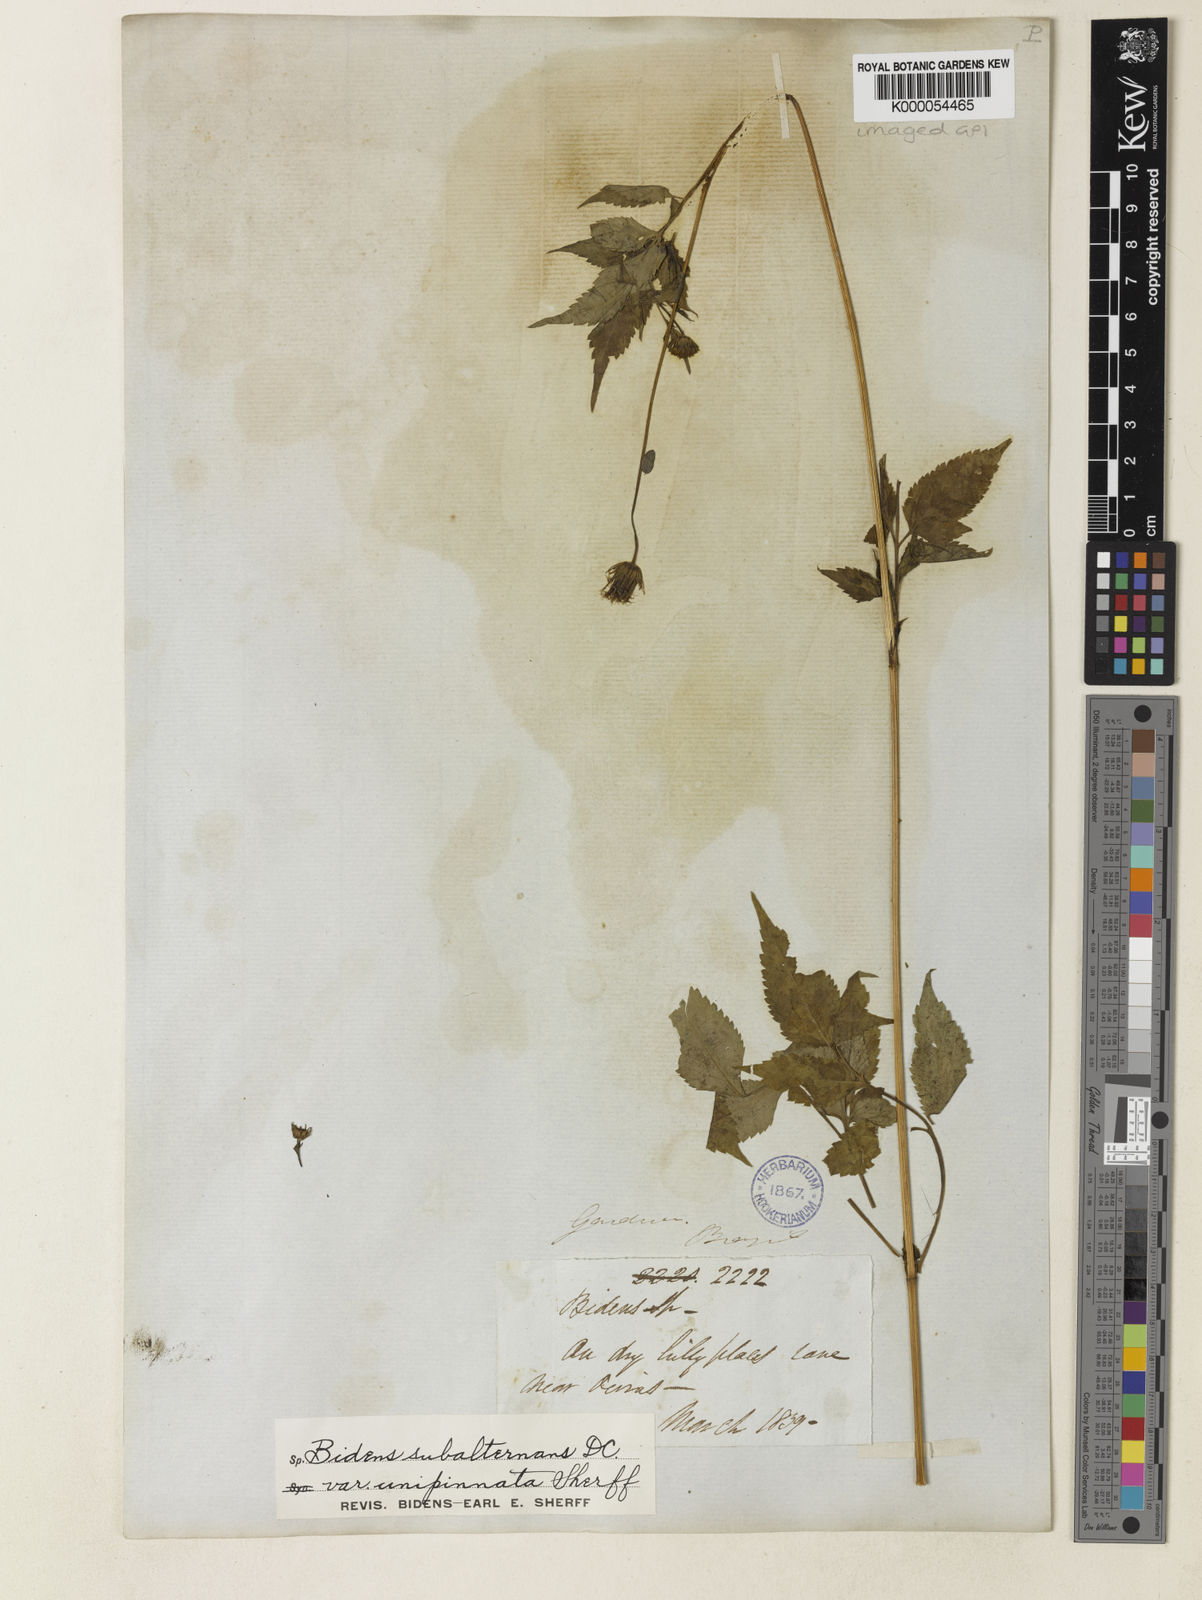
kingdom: Plantae
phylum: Tracheophyta
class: Magnoliopsida
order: Asterales
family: Asteraceae
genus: Bidens
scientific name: Bidens subalternans
